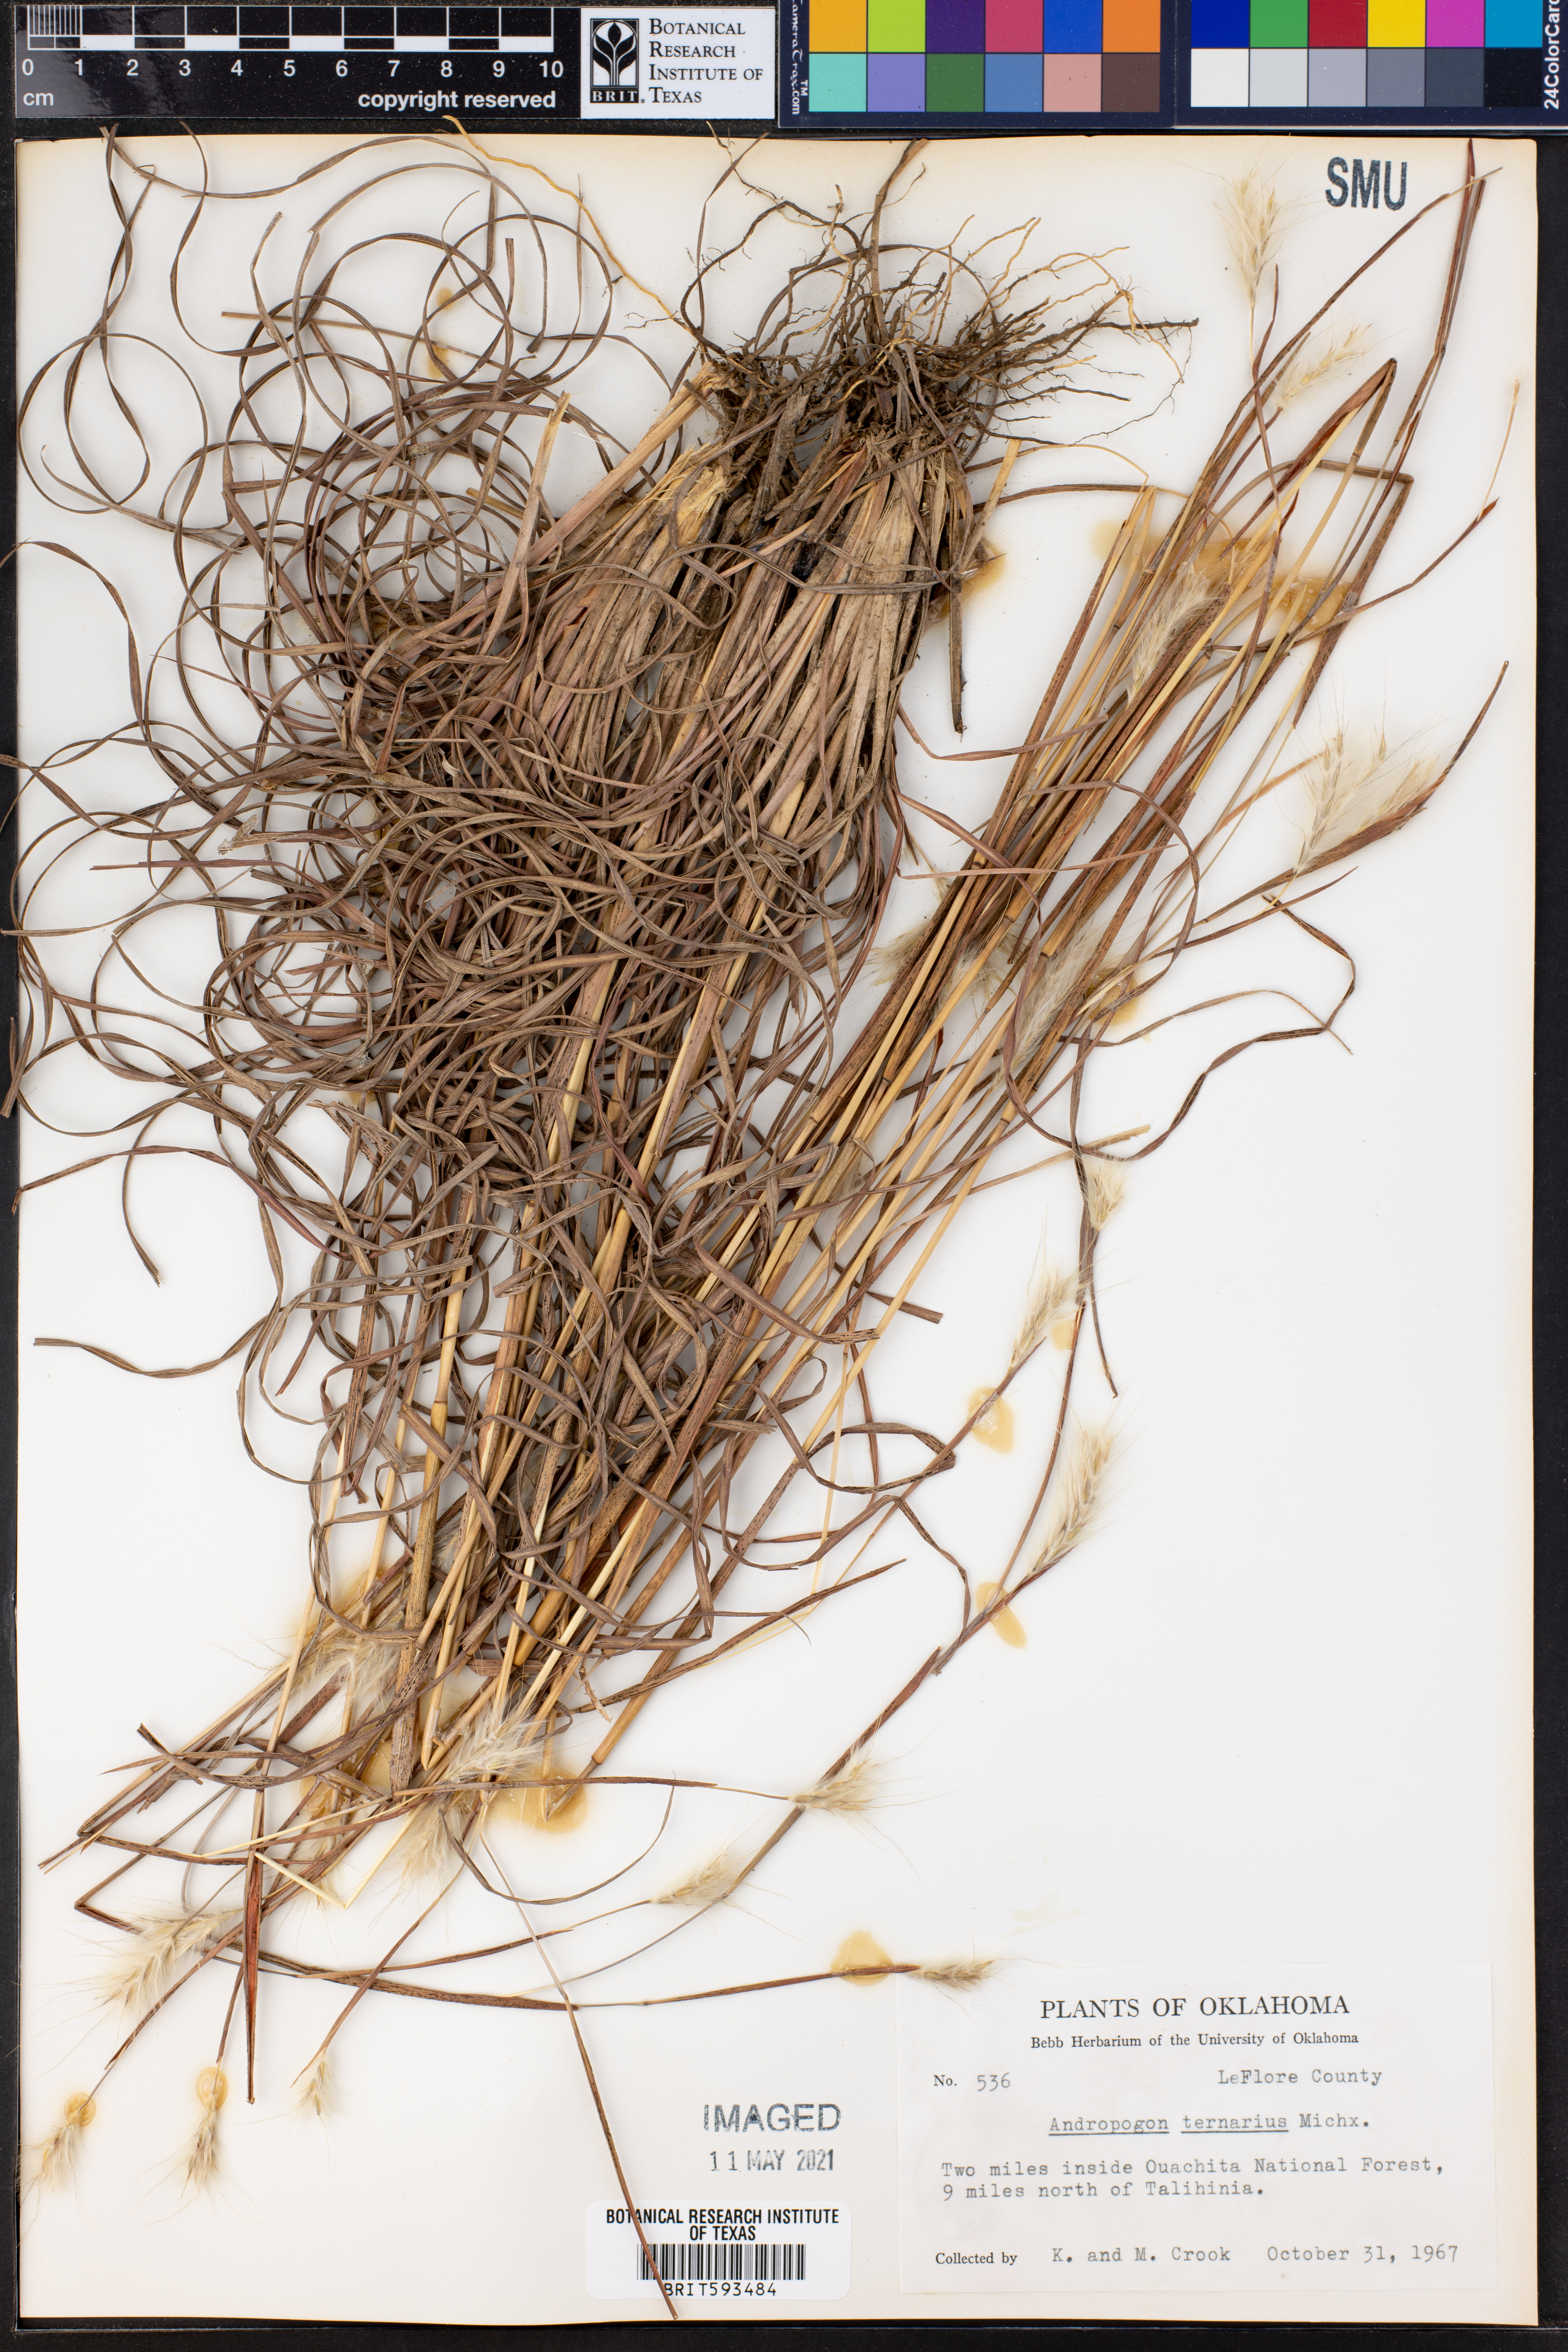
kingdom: Plantae
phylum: Tracheophyta
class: Liliopsida
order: Poales
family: Poaceae
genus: Andropogon
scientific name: Andropogon ternarius
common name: Split bluestem
